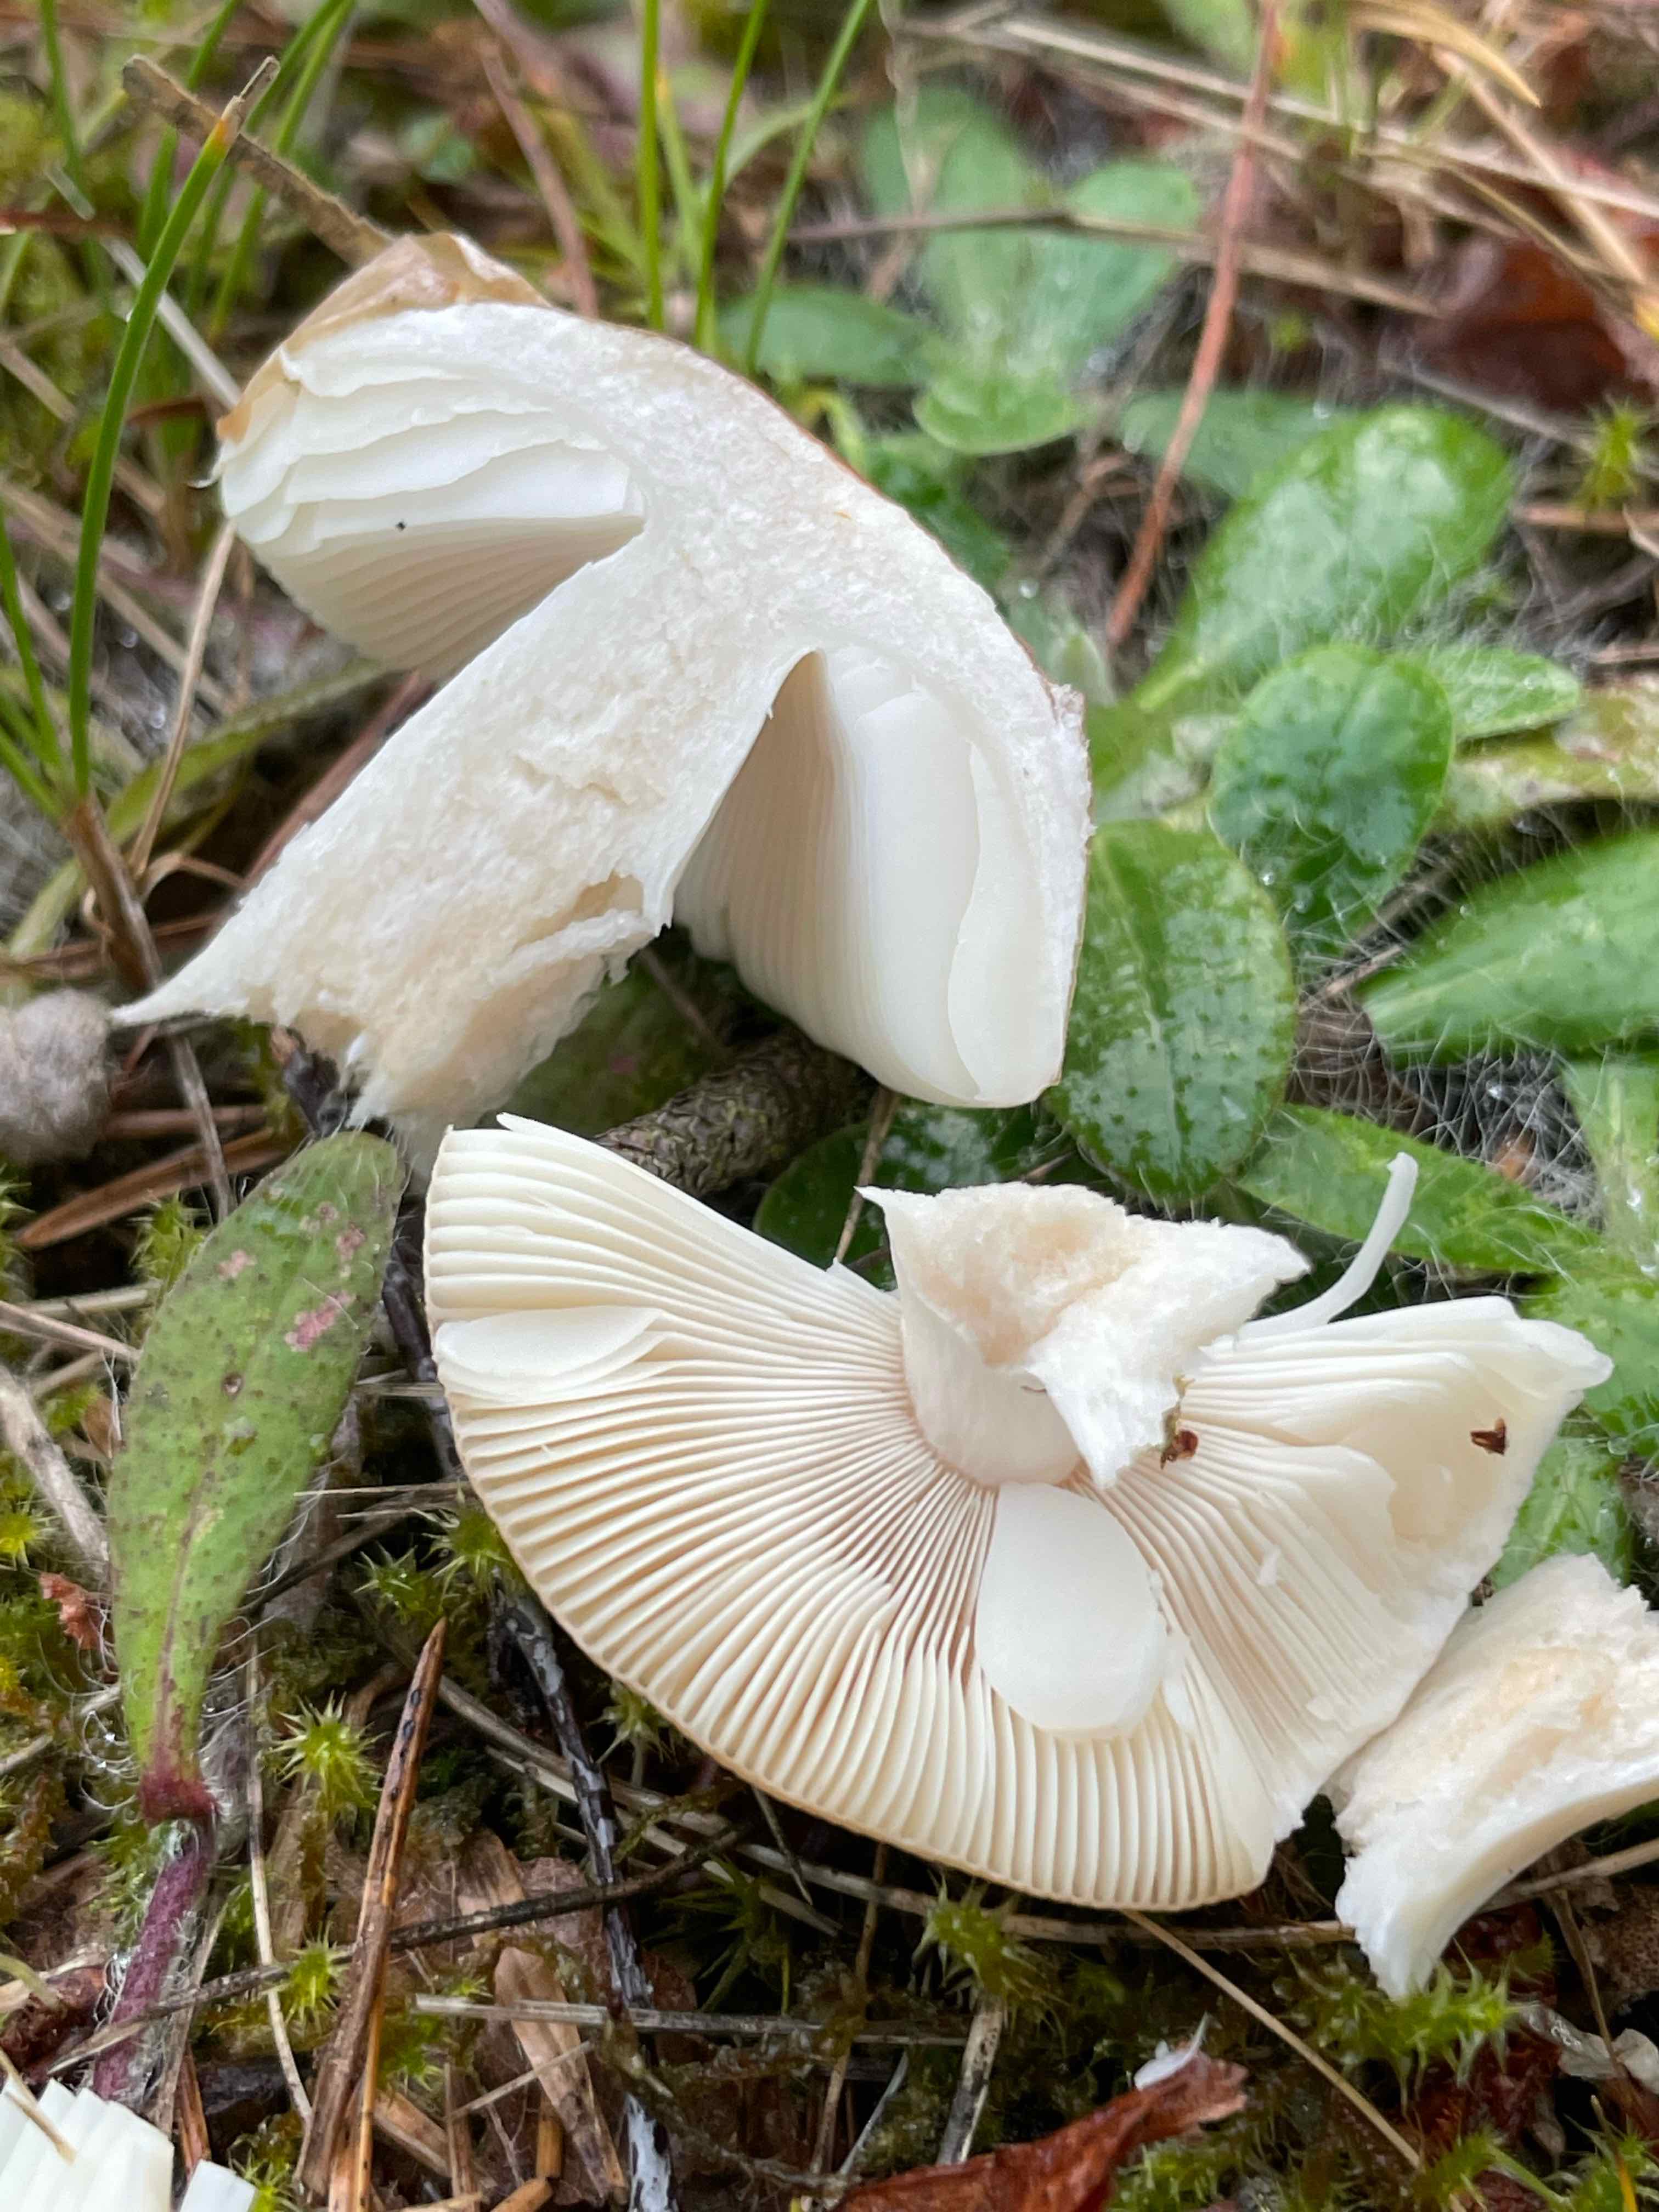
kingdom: Fungi
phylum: Basidiomycota
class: Agaricomycetes
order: Russulales
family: Russulaceae
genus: Russula
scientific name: Russula
